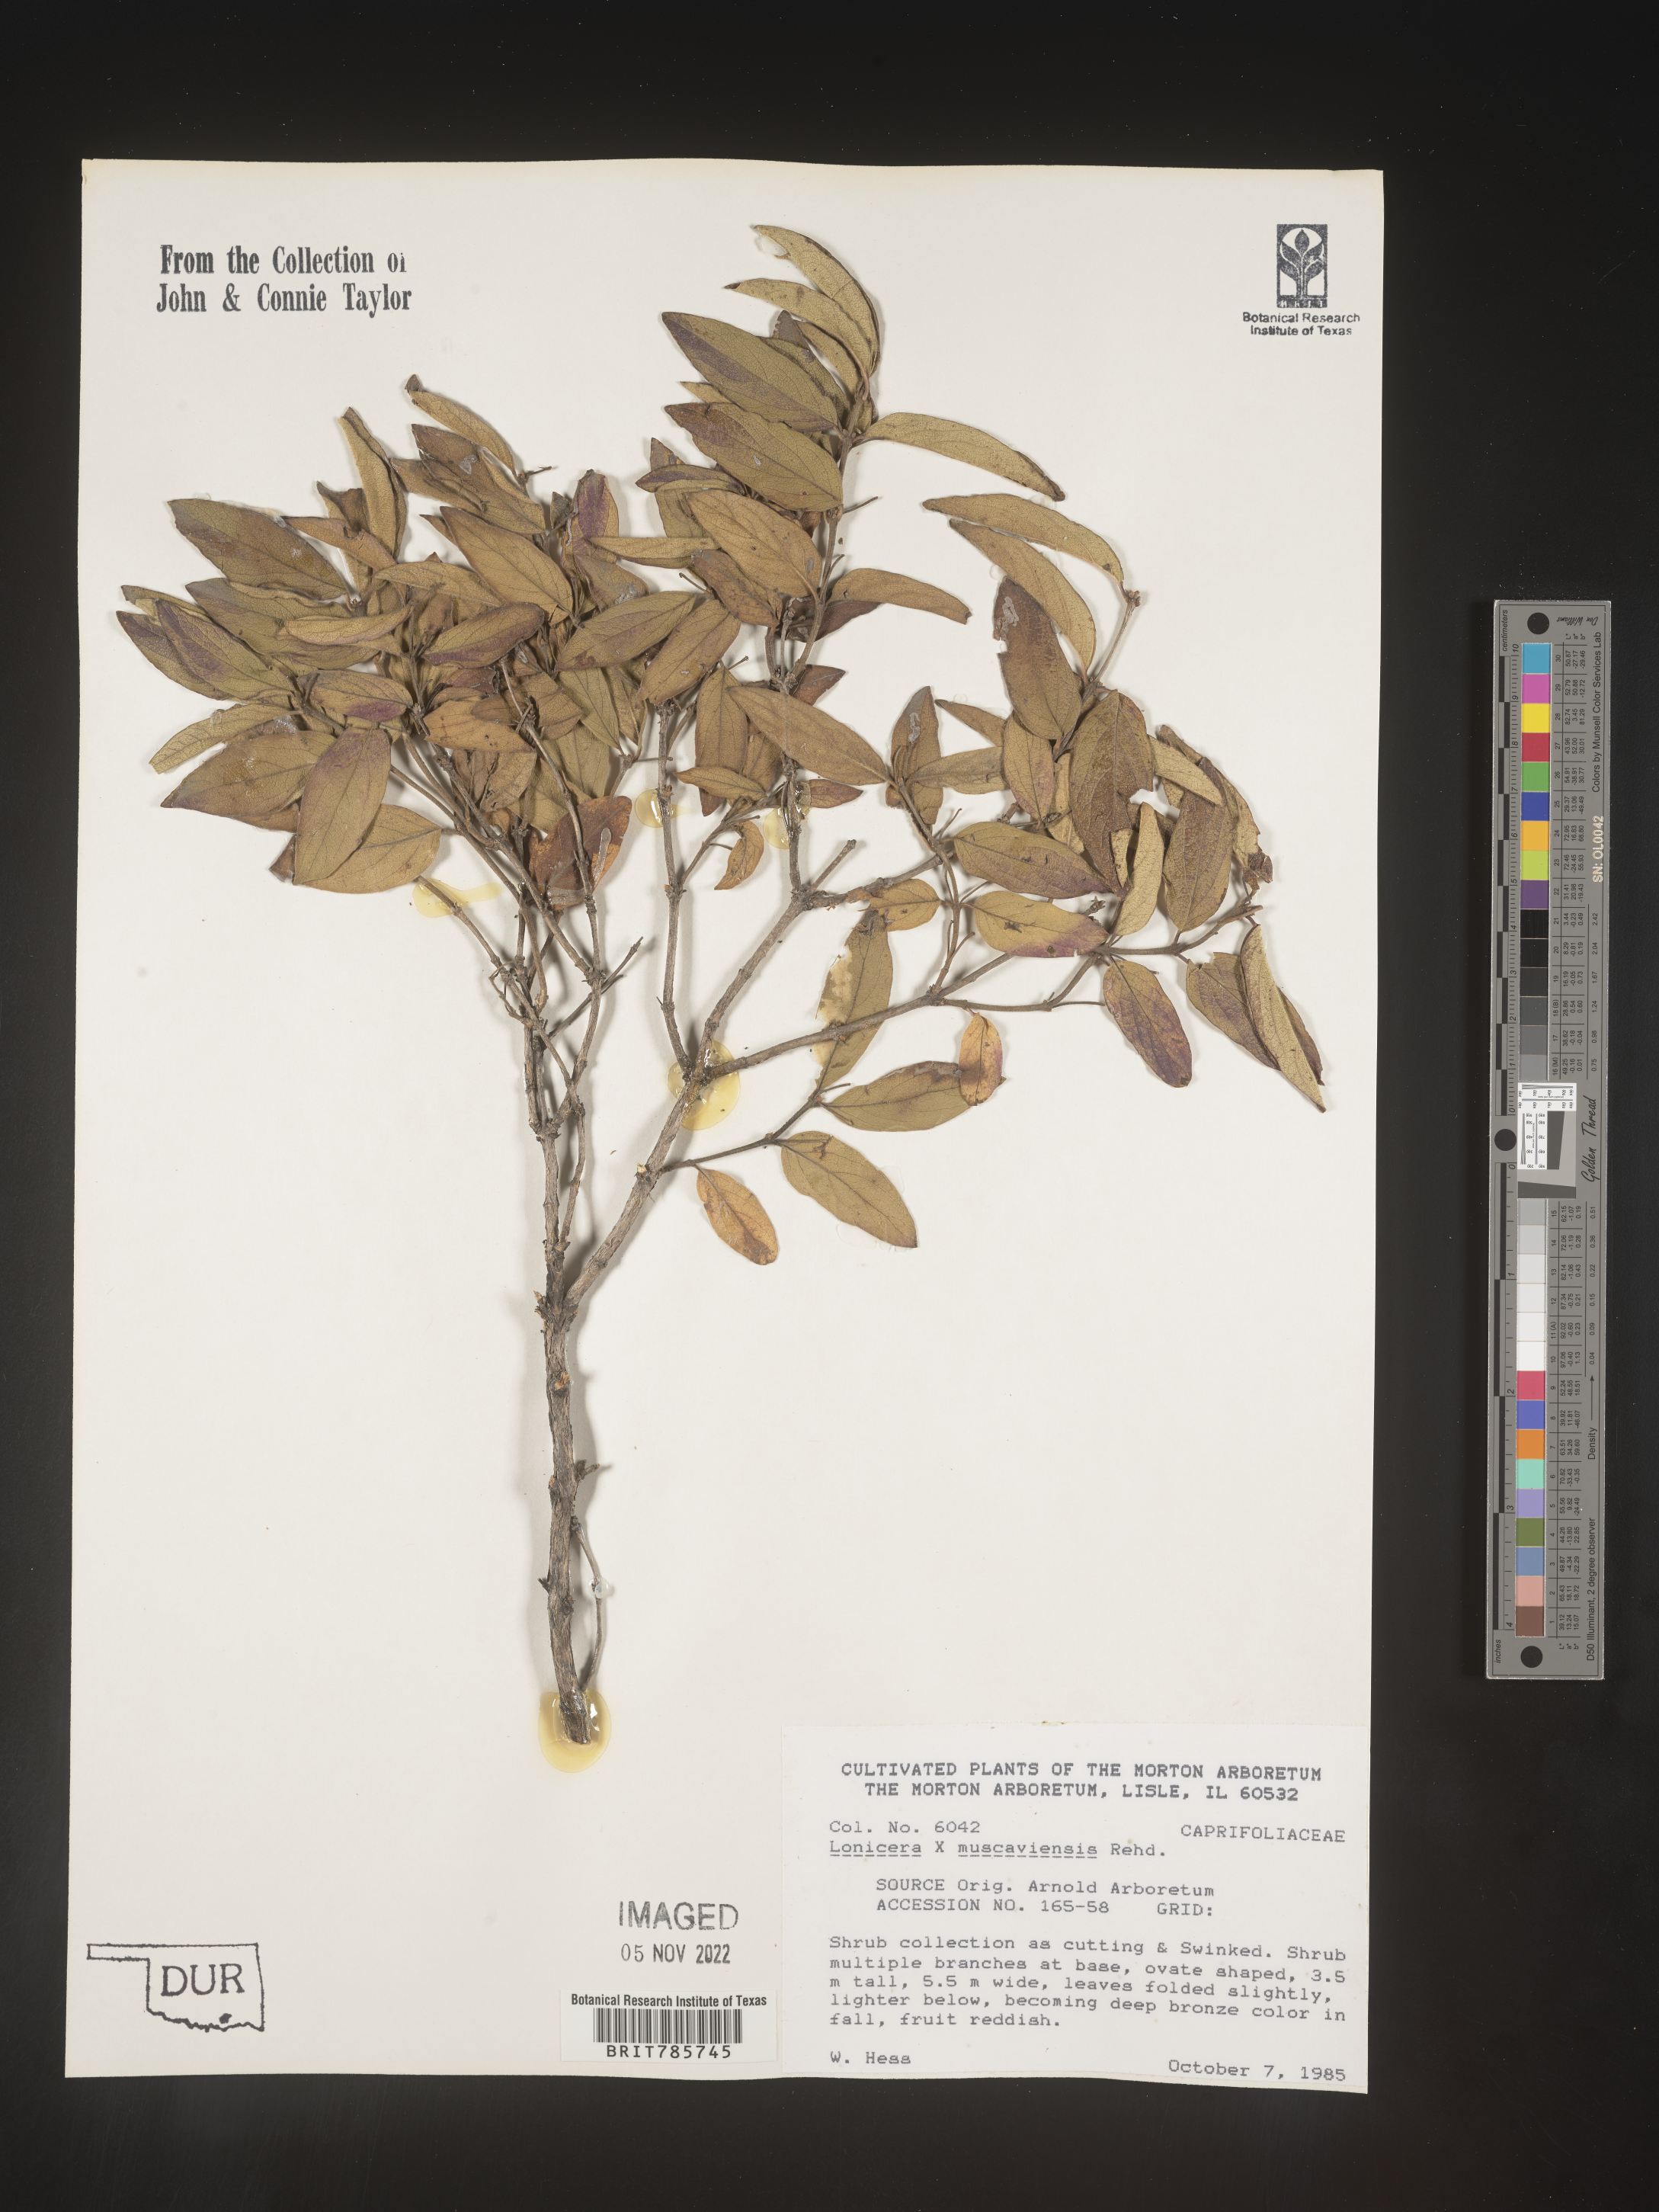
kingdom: Plantae
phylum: Tracheophyta
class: Magnoliopsida
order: Dipsacales
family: Caprifoliaceae
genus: Lonicera
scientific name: Lonicera
